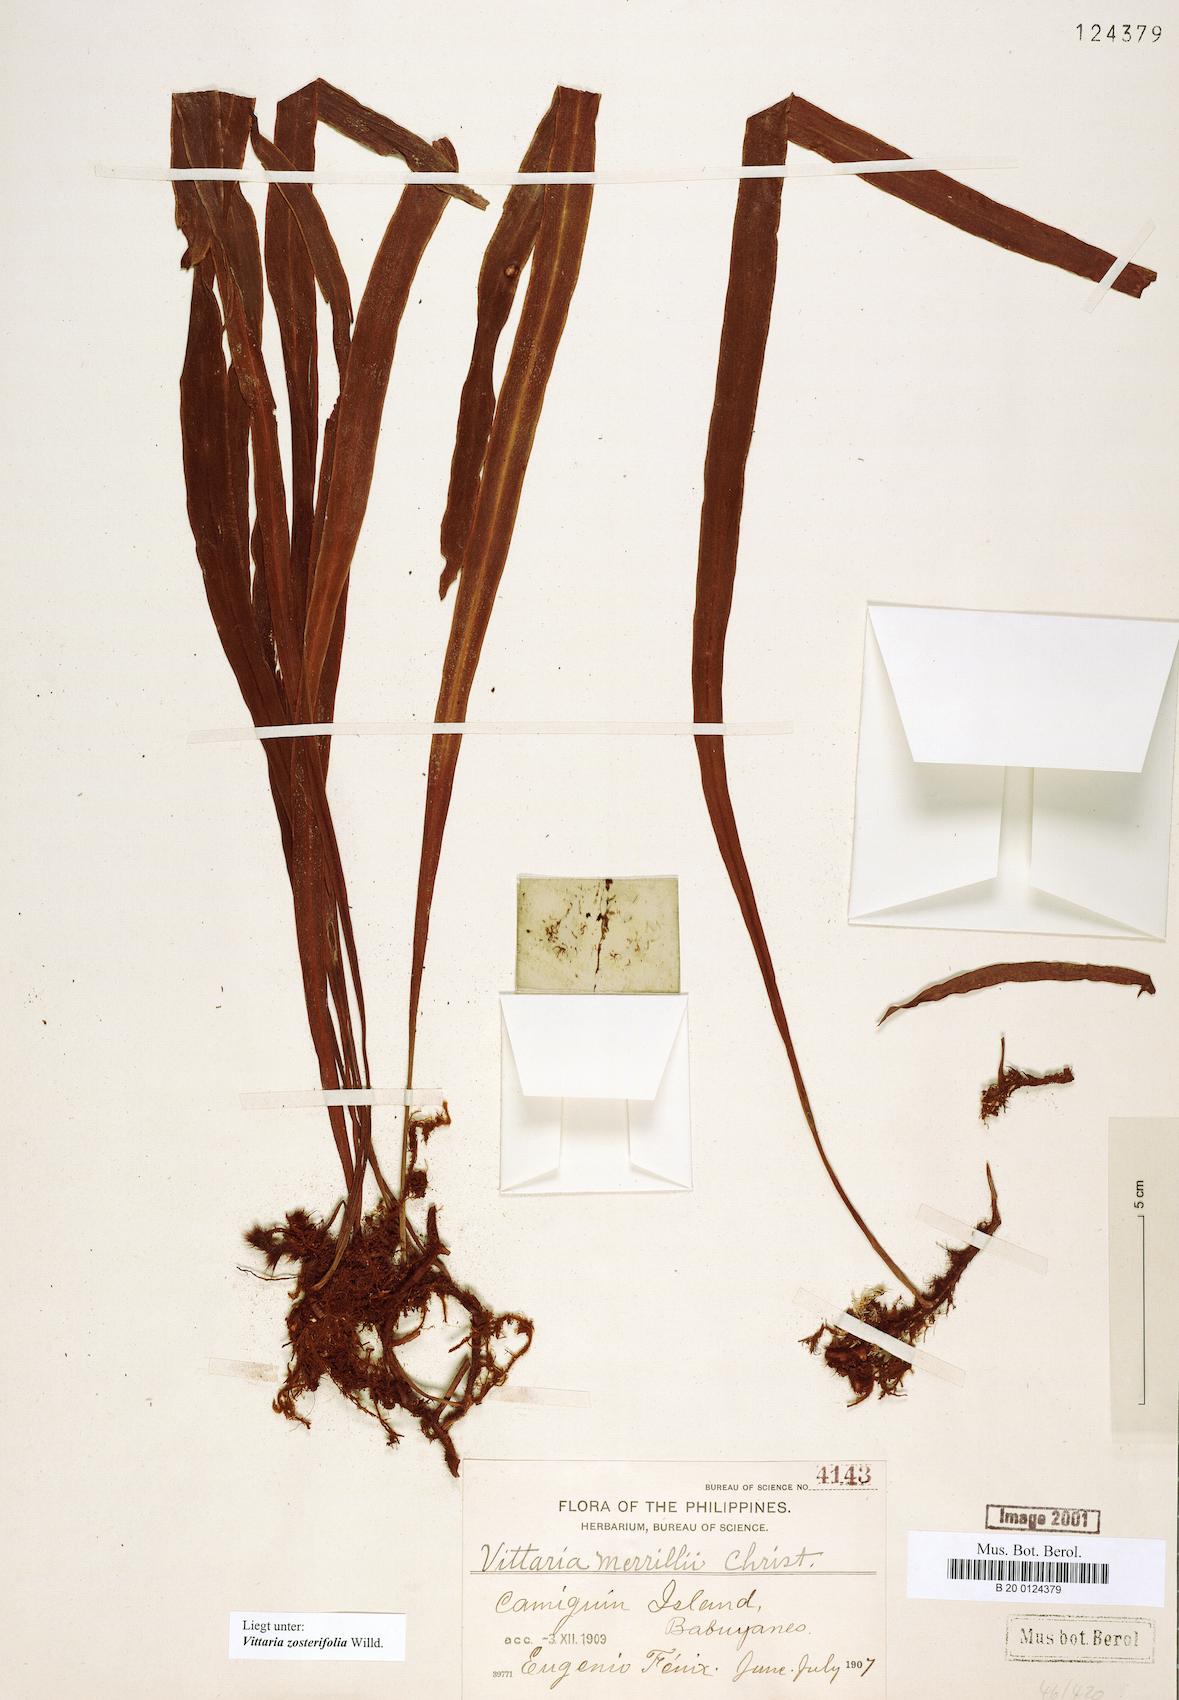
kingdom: Plantae
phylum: Tracheophyta
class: Polypodiopsida
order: Polypodiales
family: Pteridaceae
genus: Haplopteris
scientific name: Haplopteris zosterifolia
